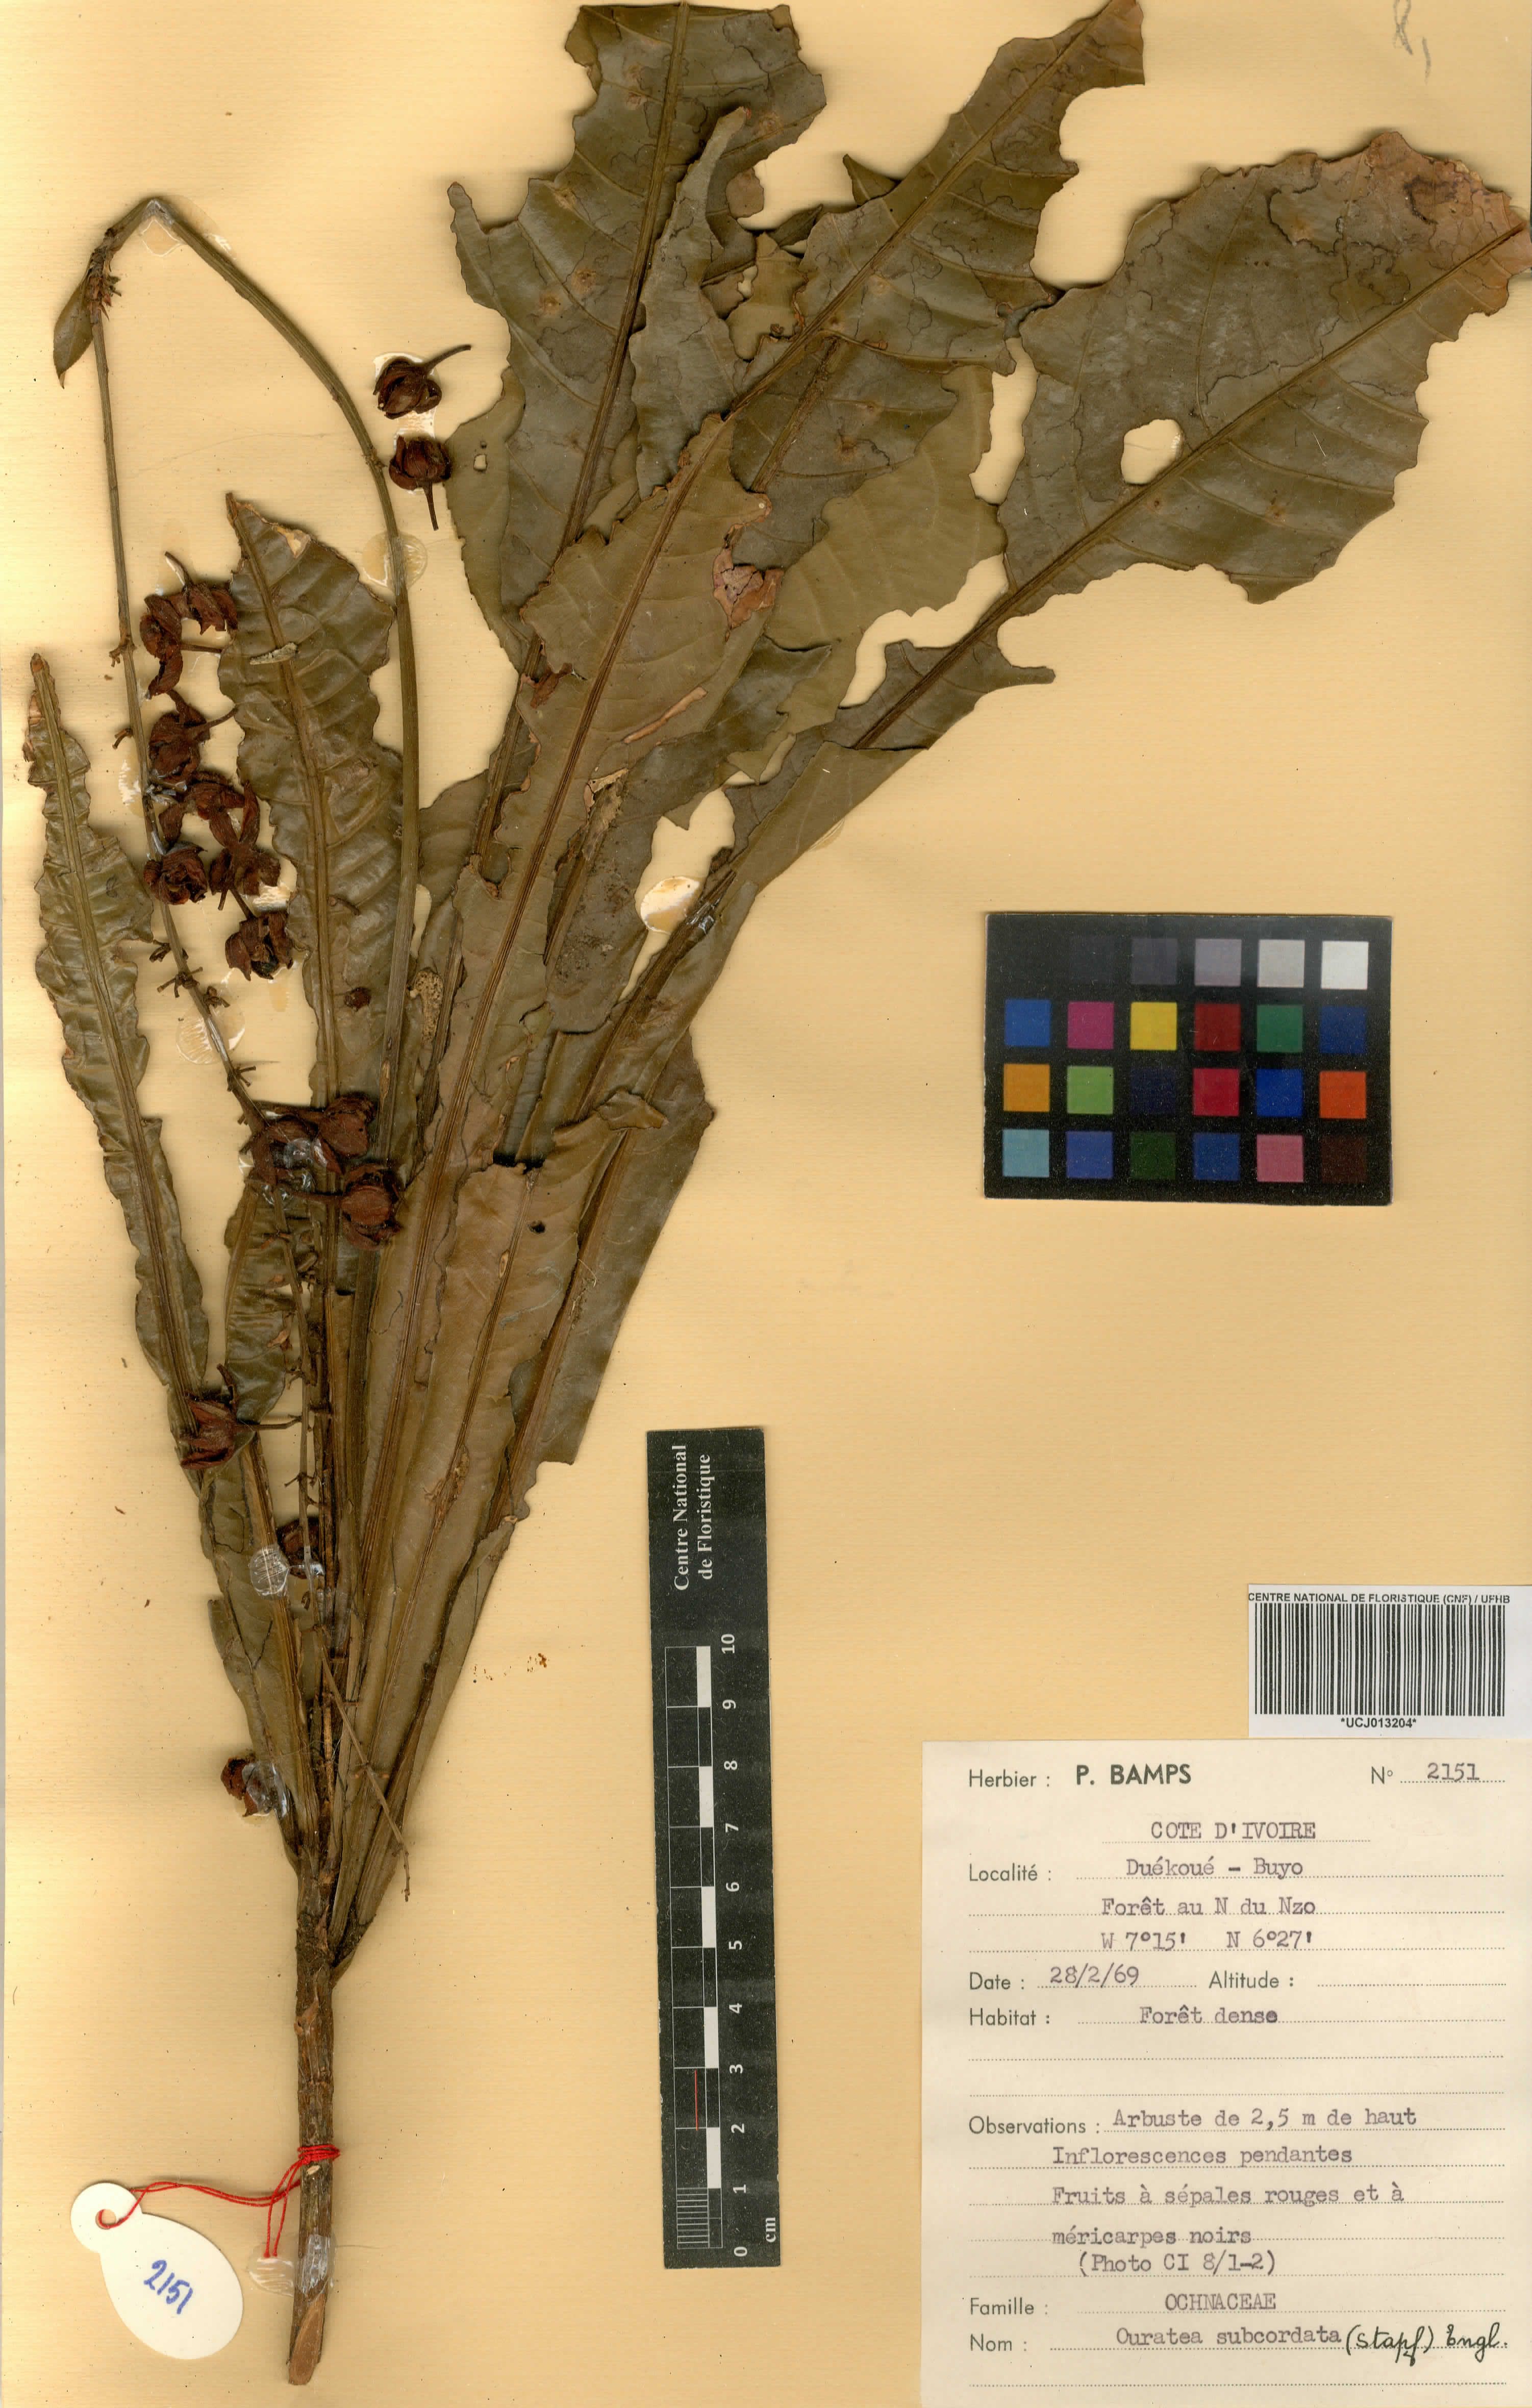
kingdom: Plantae
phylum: Tracheophyta
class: Magnoliopsida
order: Malpighiales
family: Ochnaceae
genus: Campylospermum
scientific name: Campylospermum subcordatum
